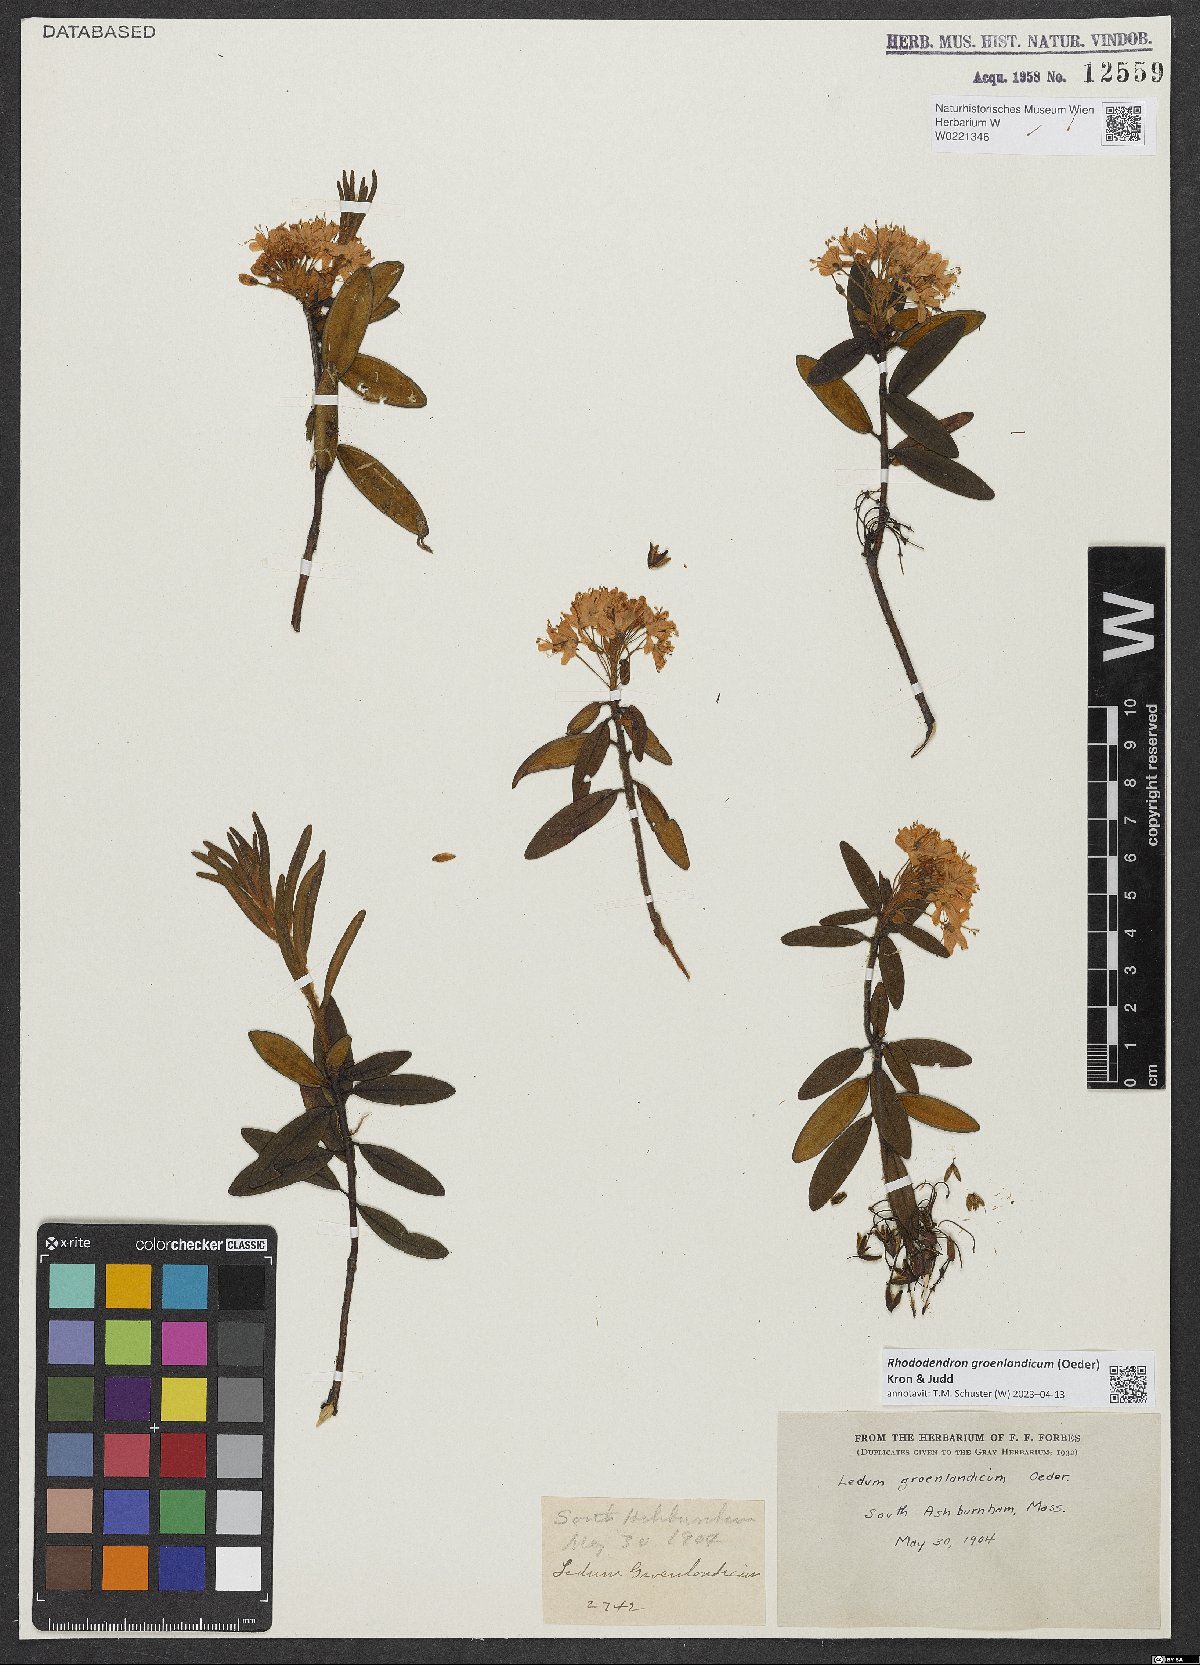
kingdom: Plantae
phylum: Tracheophyta
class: Magnoliopsida
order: Ericales
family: Ericaceae
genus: Rhododendron
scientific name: Rhododendron groenlandicum
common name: Bog labrador tea
